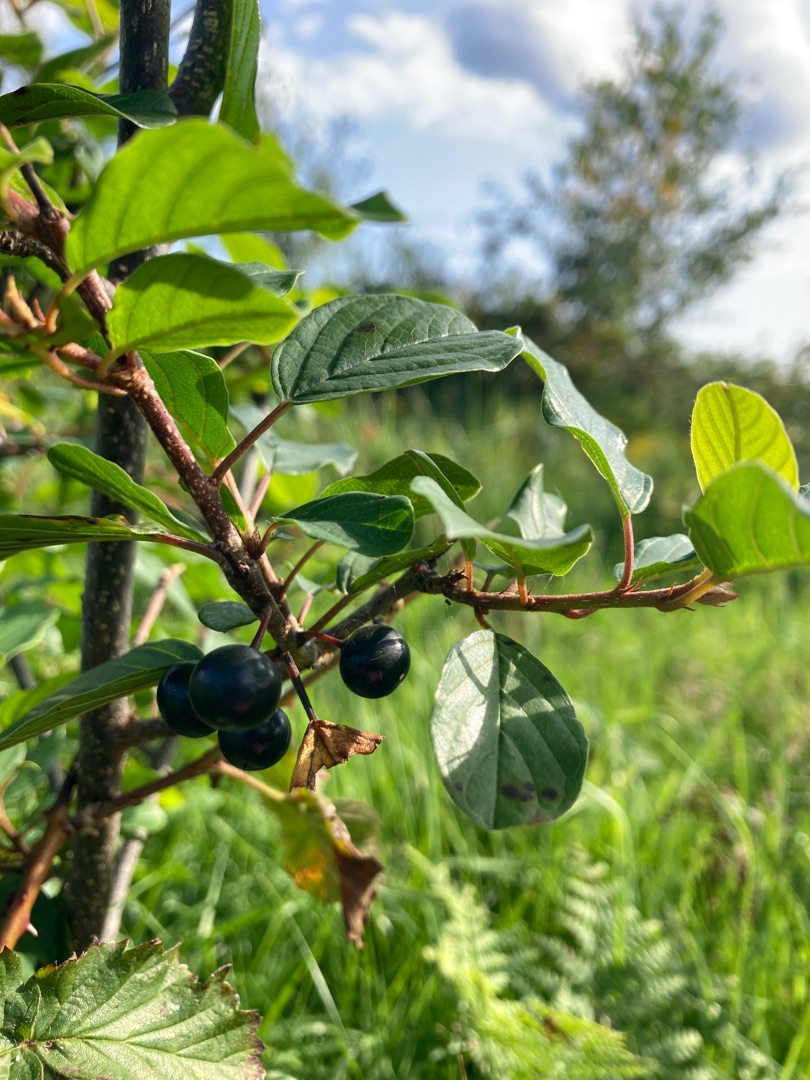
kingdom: Plantae
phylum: Tracheophyta
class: Magnoliopsida
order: Rosales
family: Rhamnaceae
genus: Frangula
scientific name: Frangula alnus
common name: Tørst
